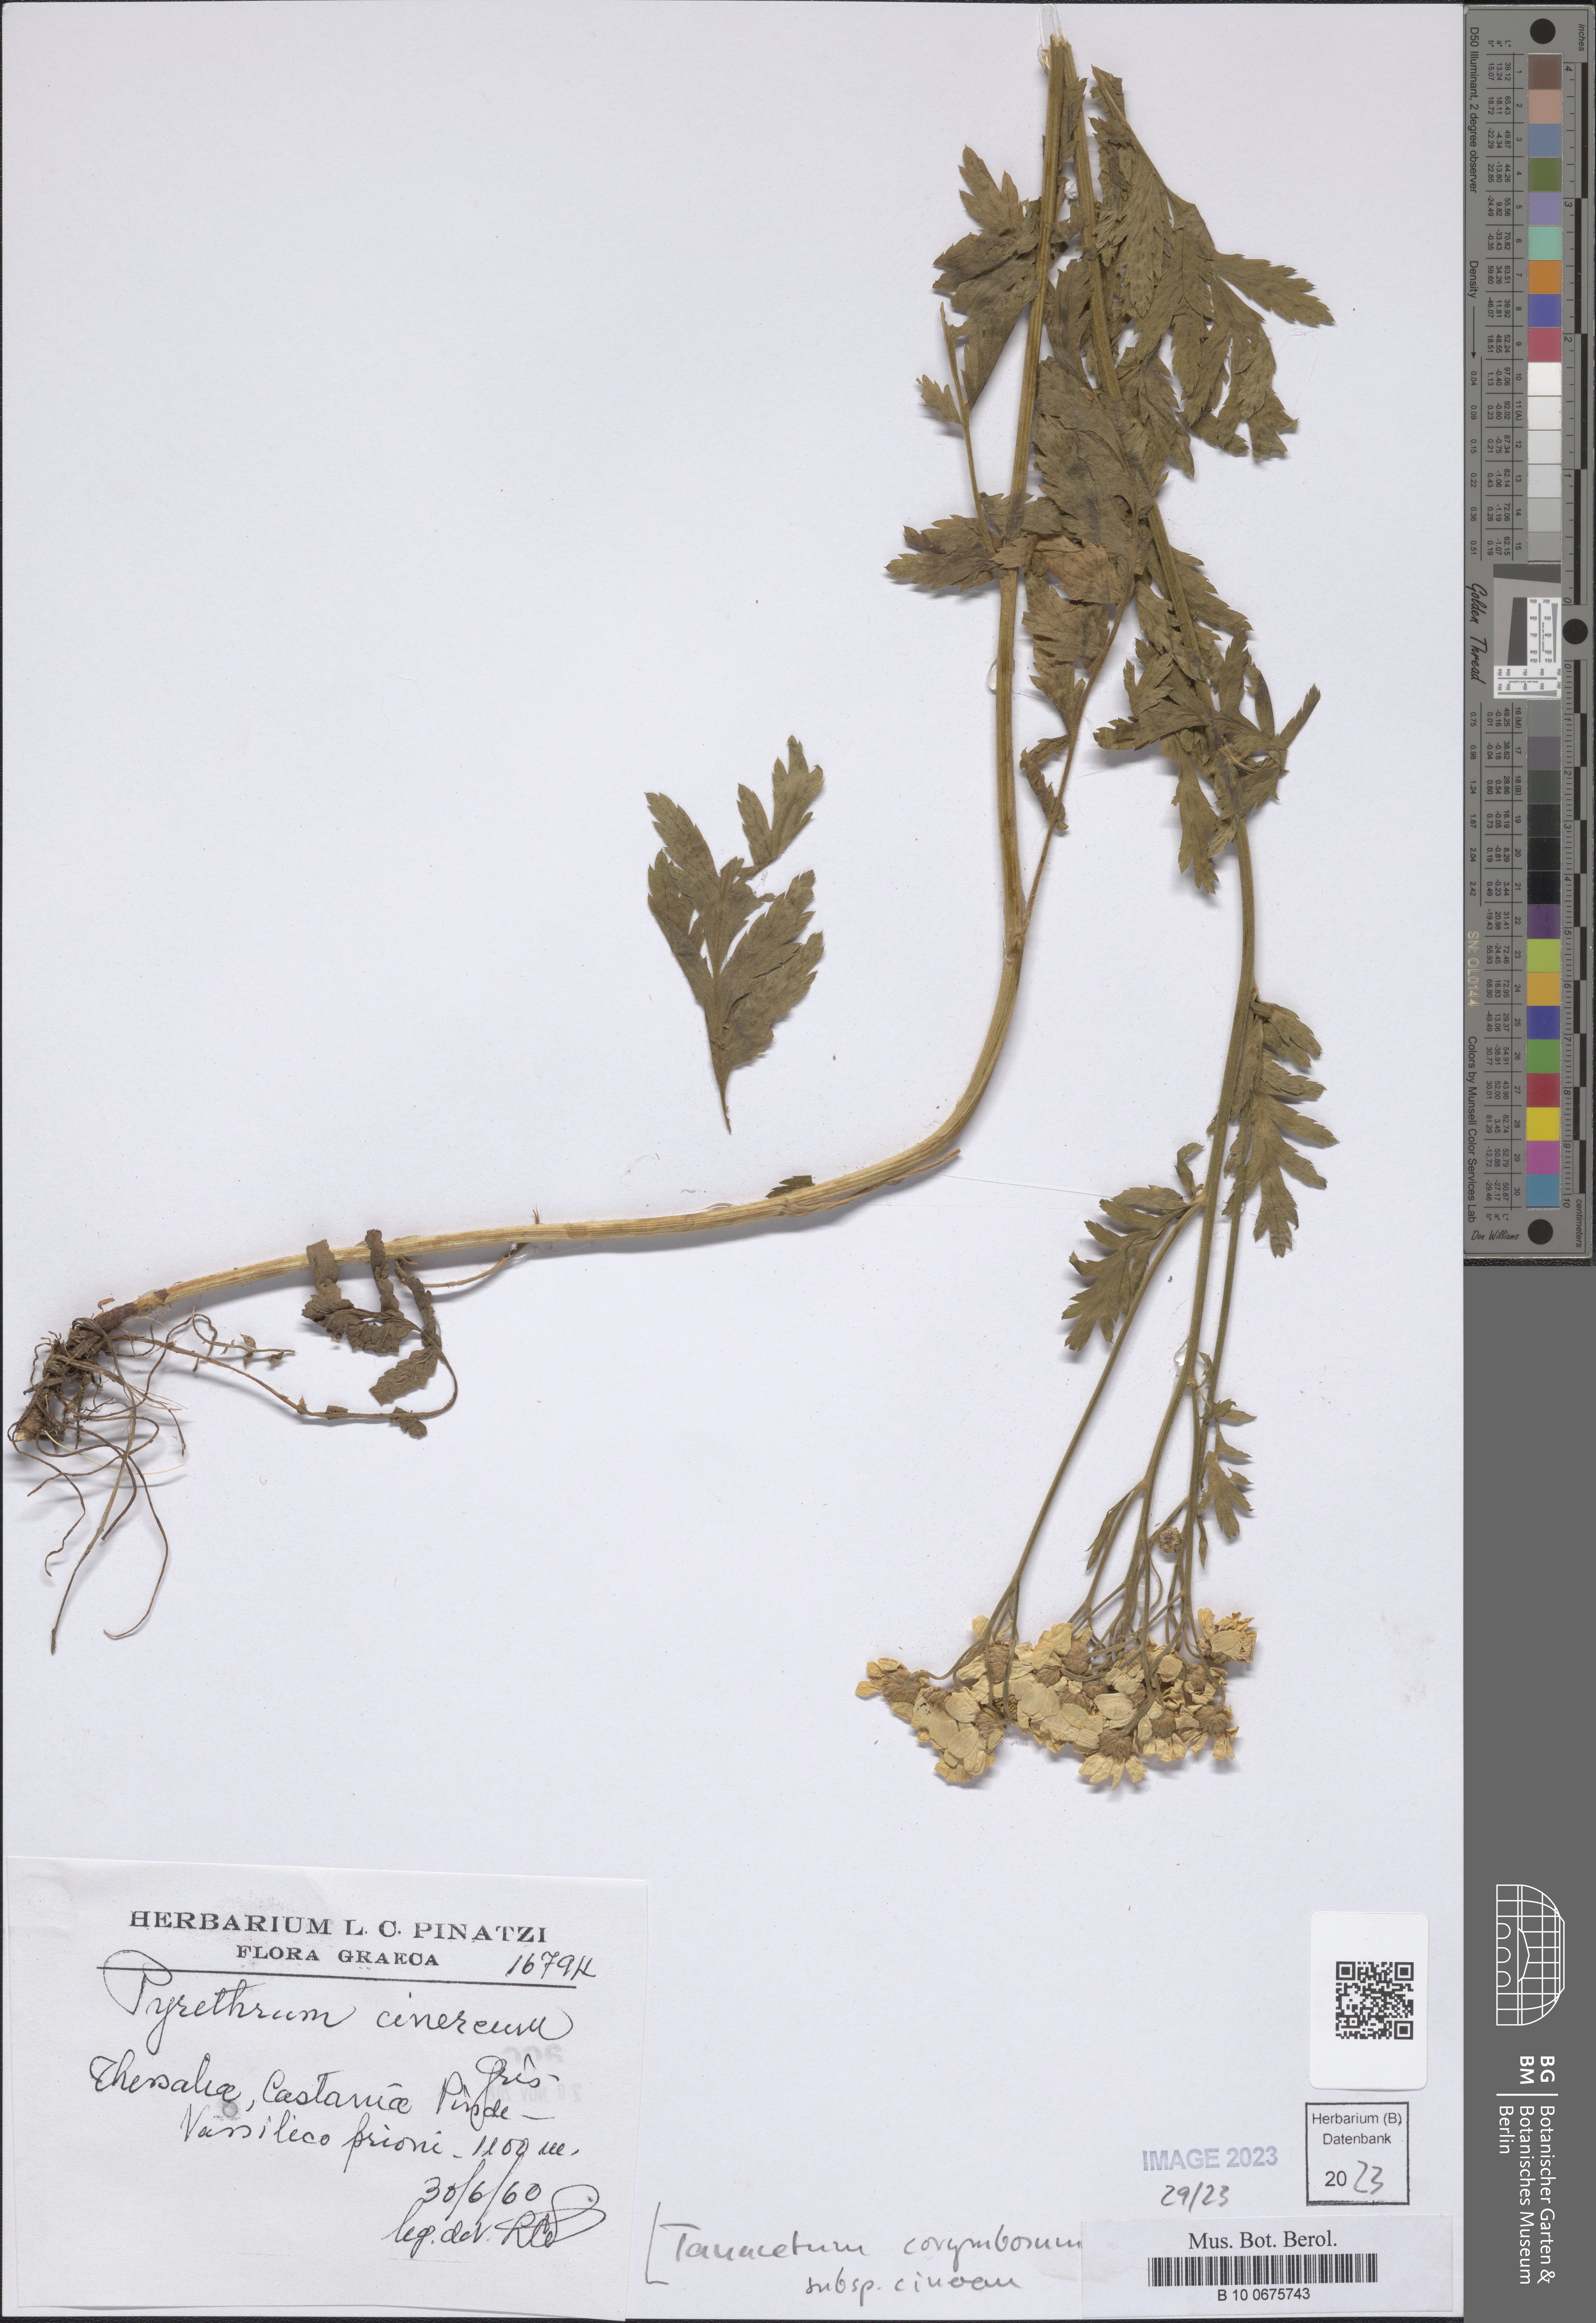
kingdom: Plantae
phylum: Tracheophyta
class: Magnoliopsida
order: Asterales
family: Asteraceae
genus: Tanacetum
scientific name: Tanacetum corymbosum
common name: Scentless feverfew
